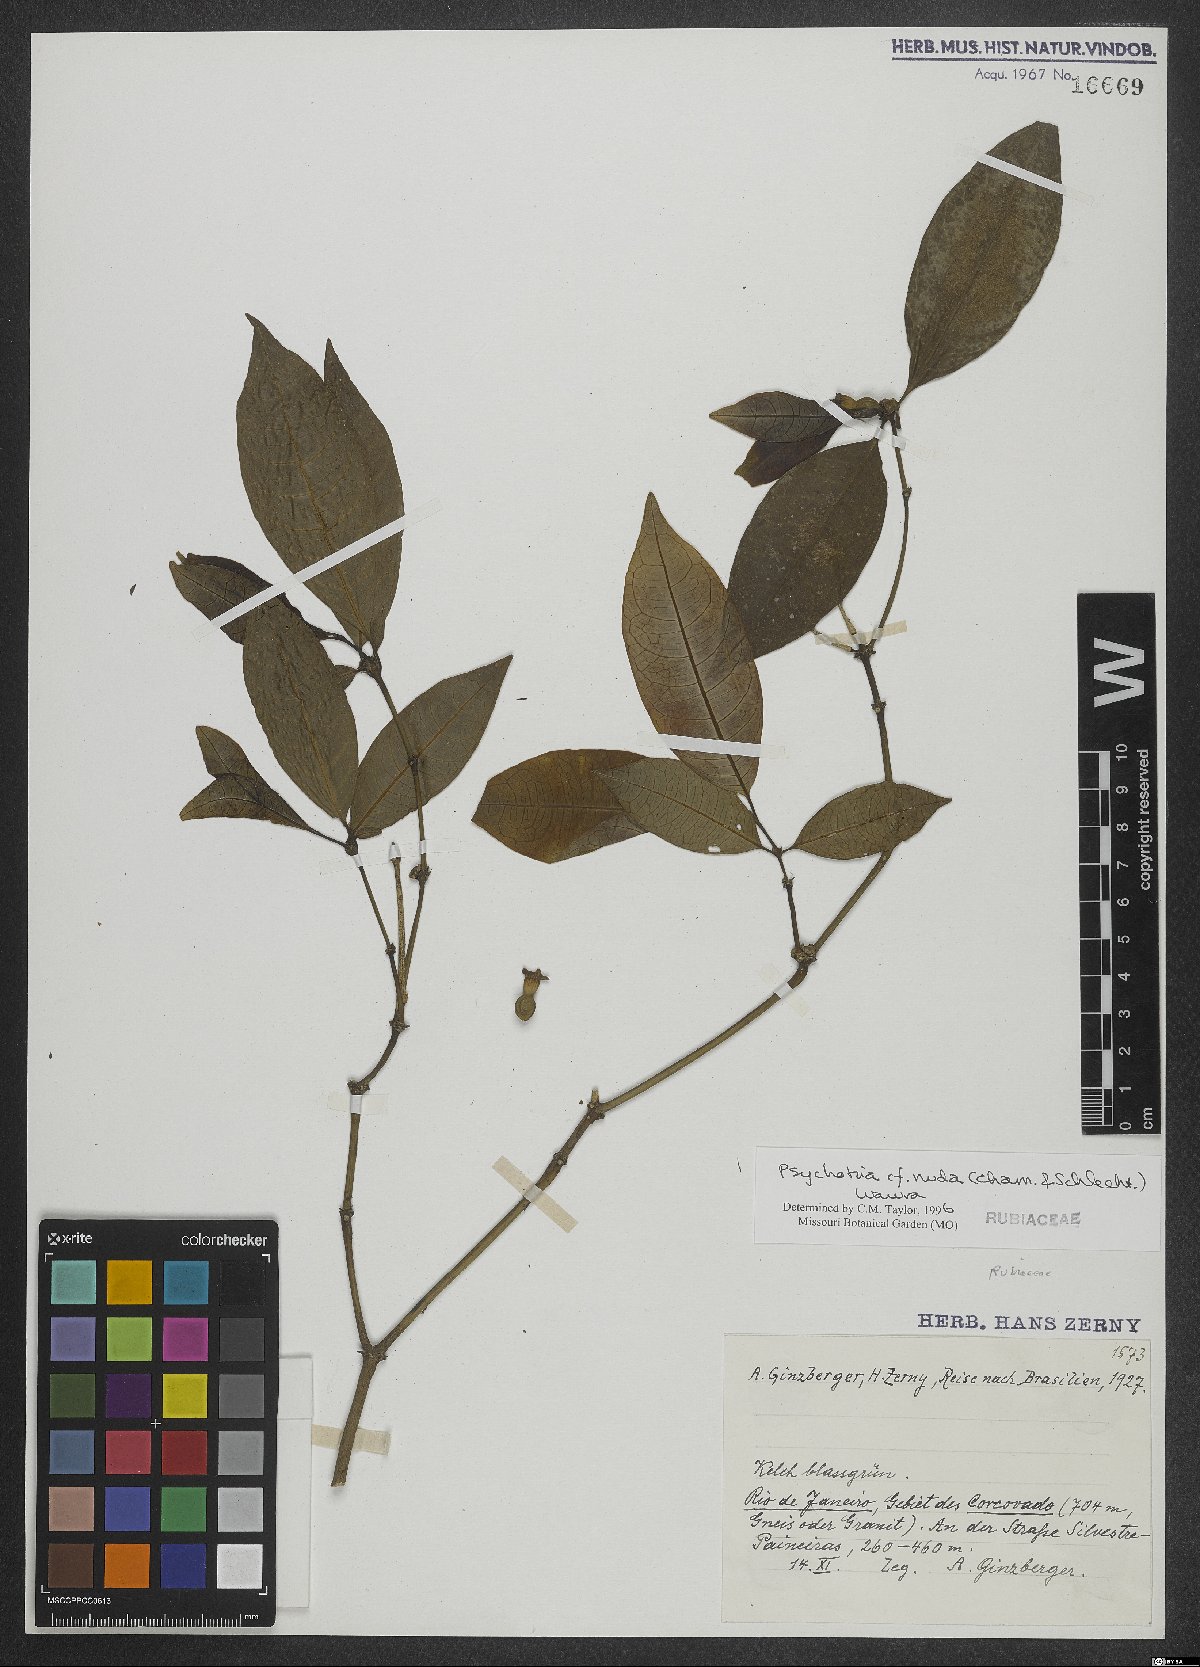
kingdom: Plantae
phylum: Tracheophyta
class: Magnoliopsida
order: Gentianales
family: Rubiaceae
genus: Psychotria
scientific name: Psychotria nuda
